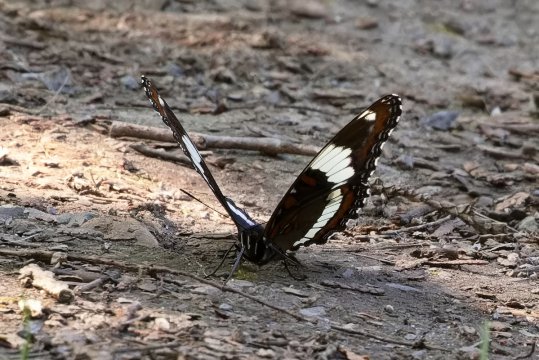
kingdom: Animalia
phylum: Arthropoda
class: Insecta
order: Lepidoptera
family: Nymphalidae
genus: Limenitis
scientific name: Limenitis arthemis
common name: Red-spotted Admiral
